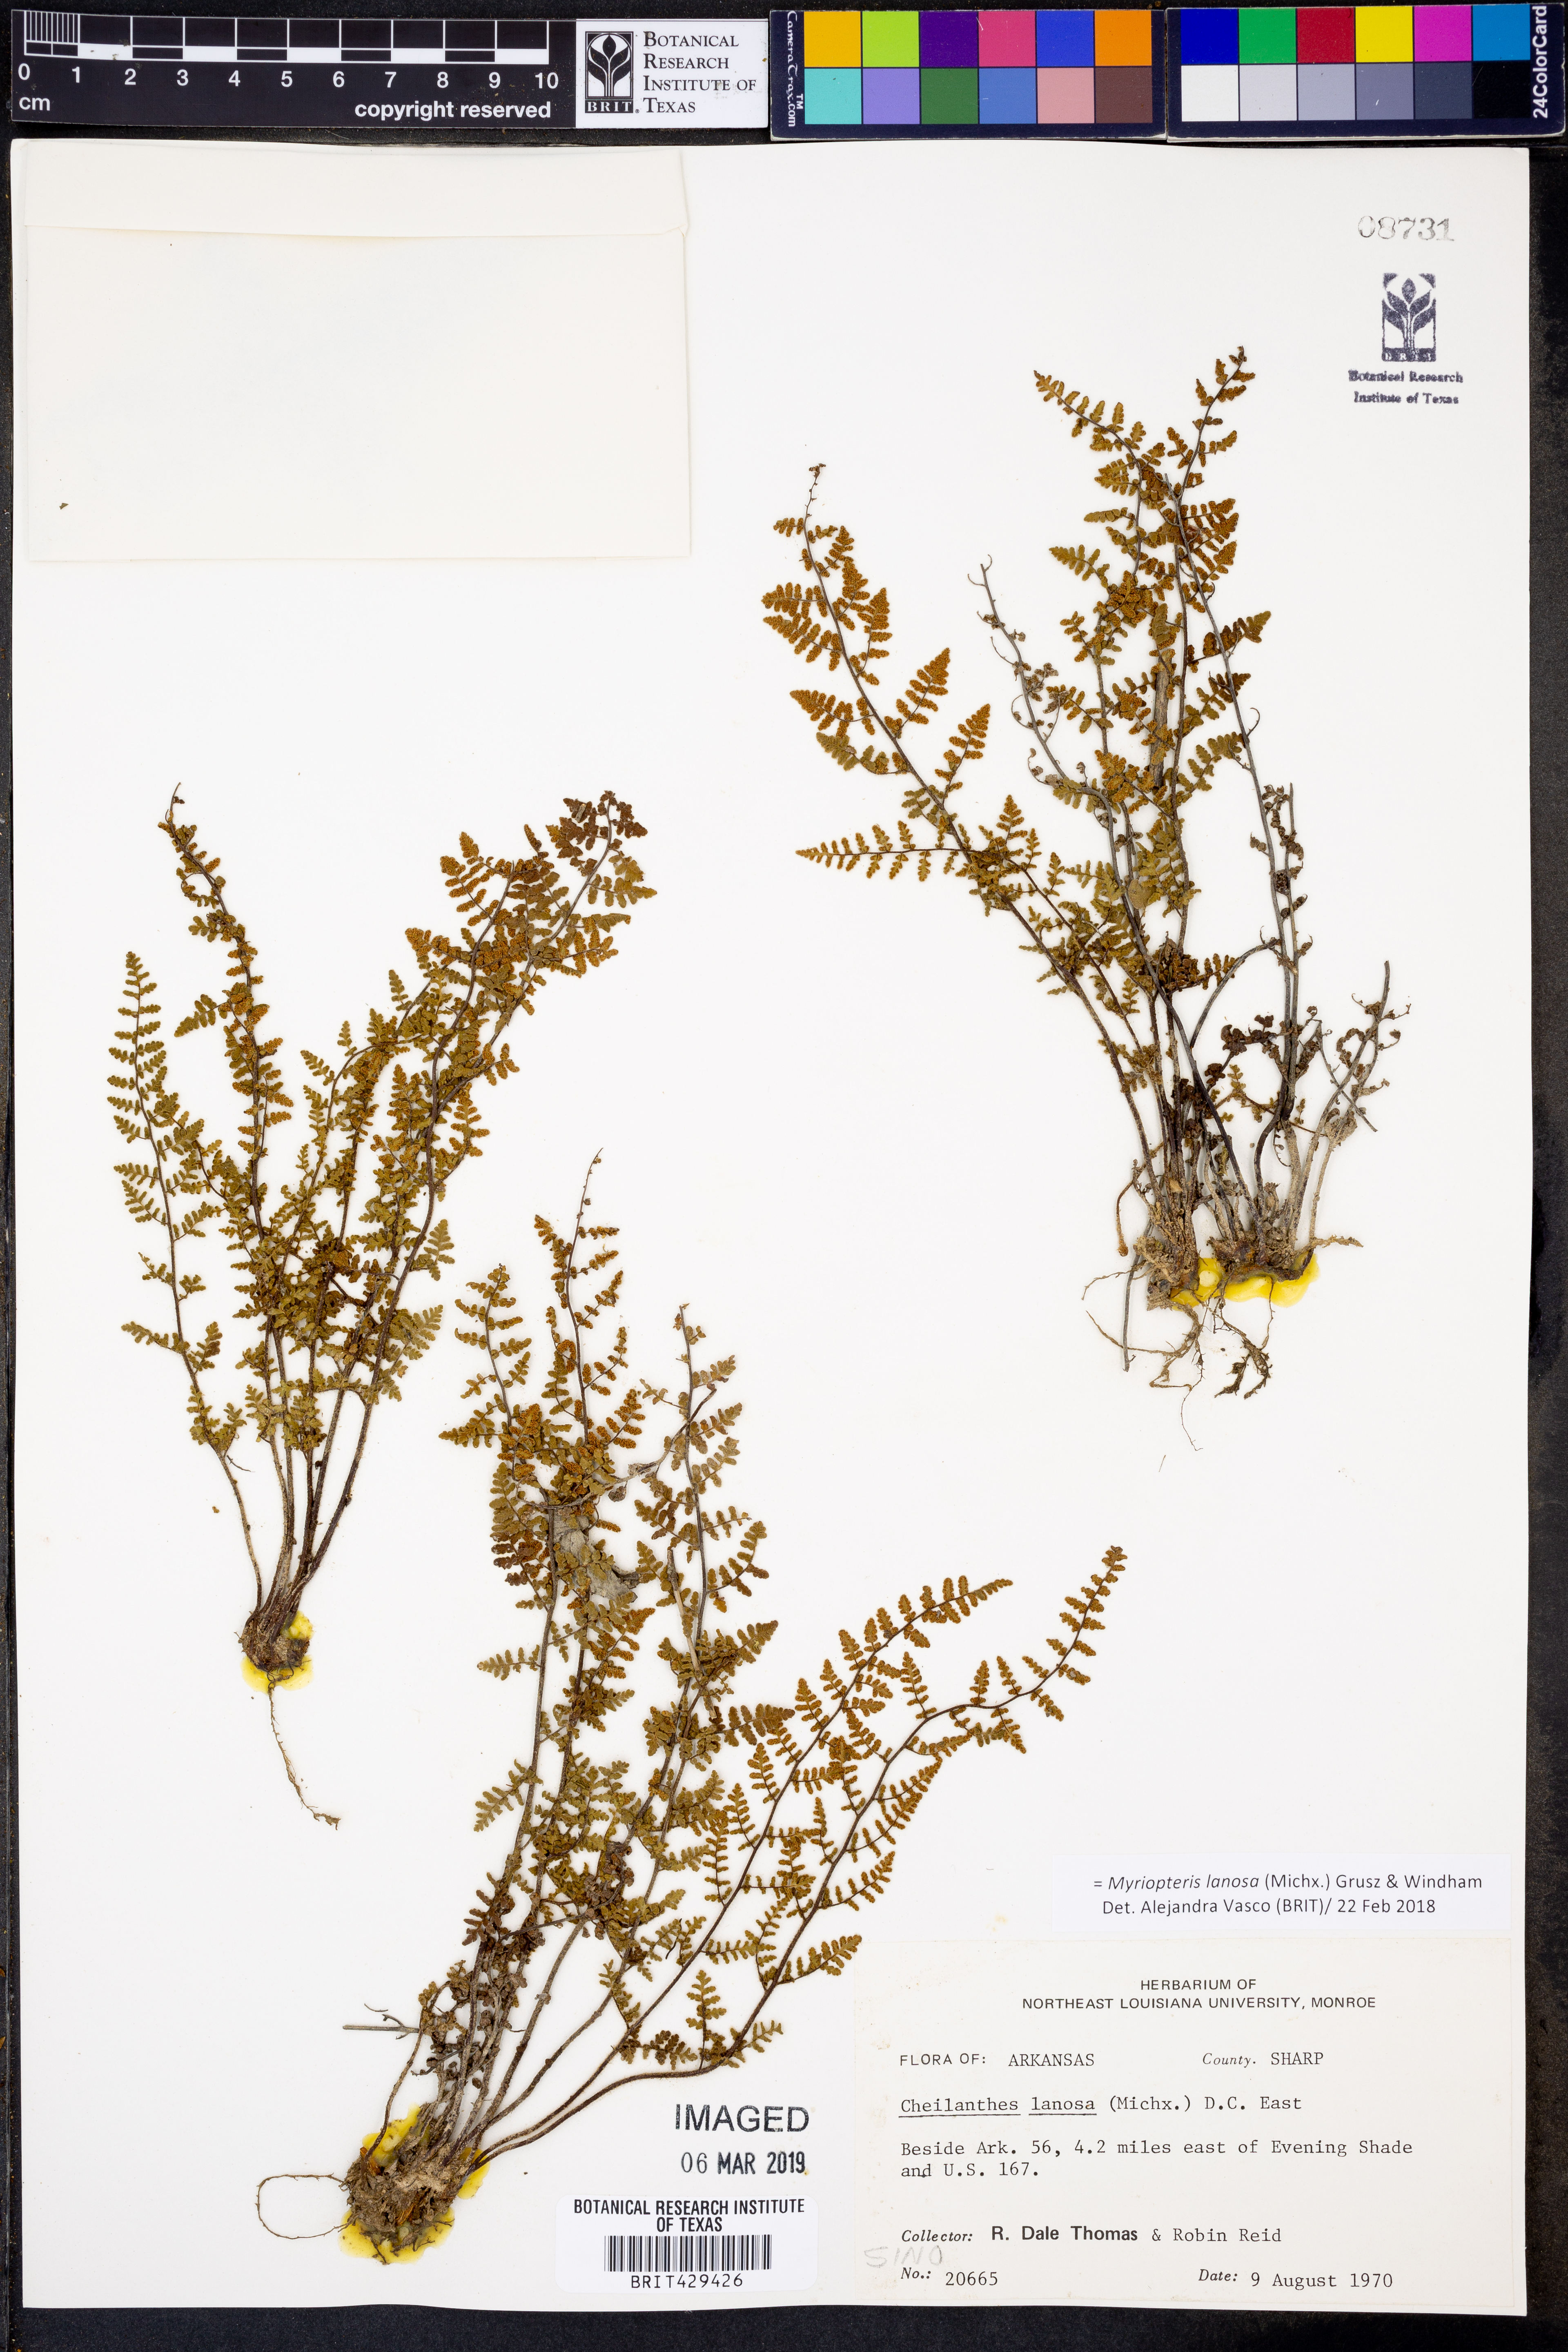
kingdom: Plantae
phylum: Tracheophyta
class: Polypodiopsida
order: Polypodiales
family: Pteridaceae
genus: Myriopteris
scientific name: Myriopteris lanosa
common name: Hairy lip fern
